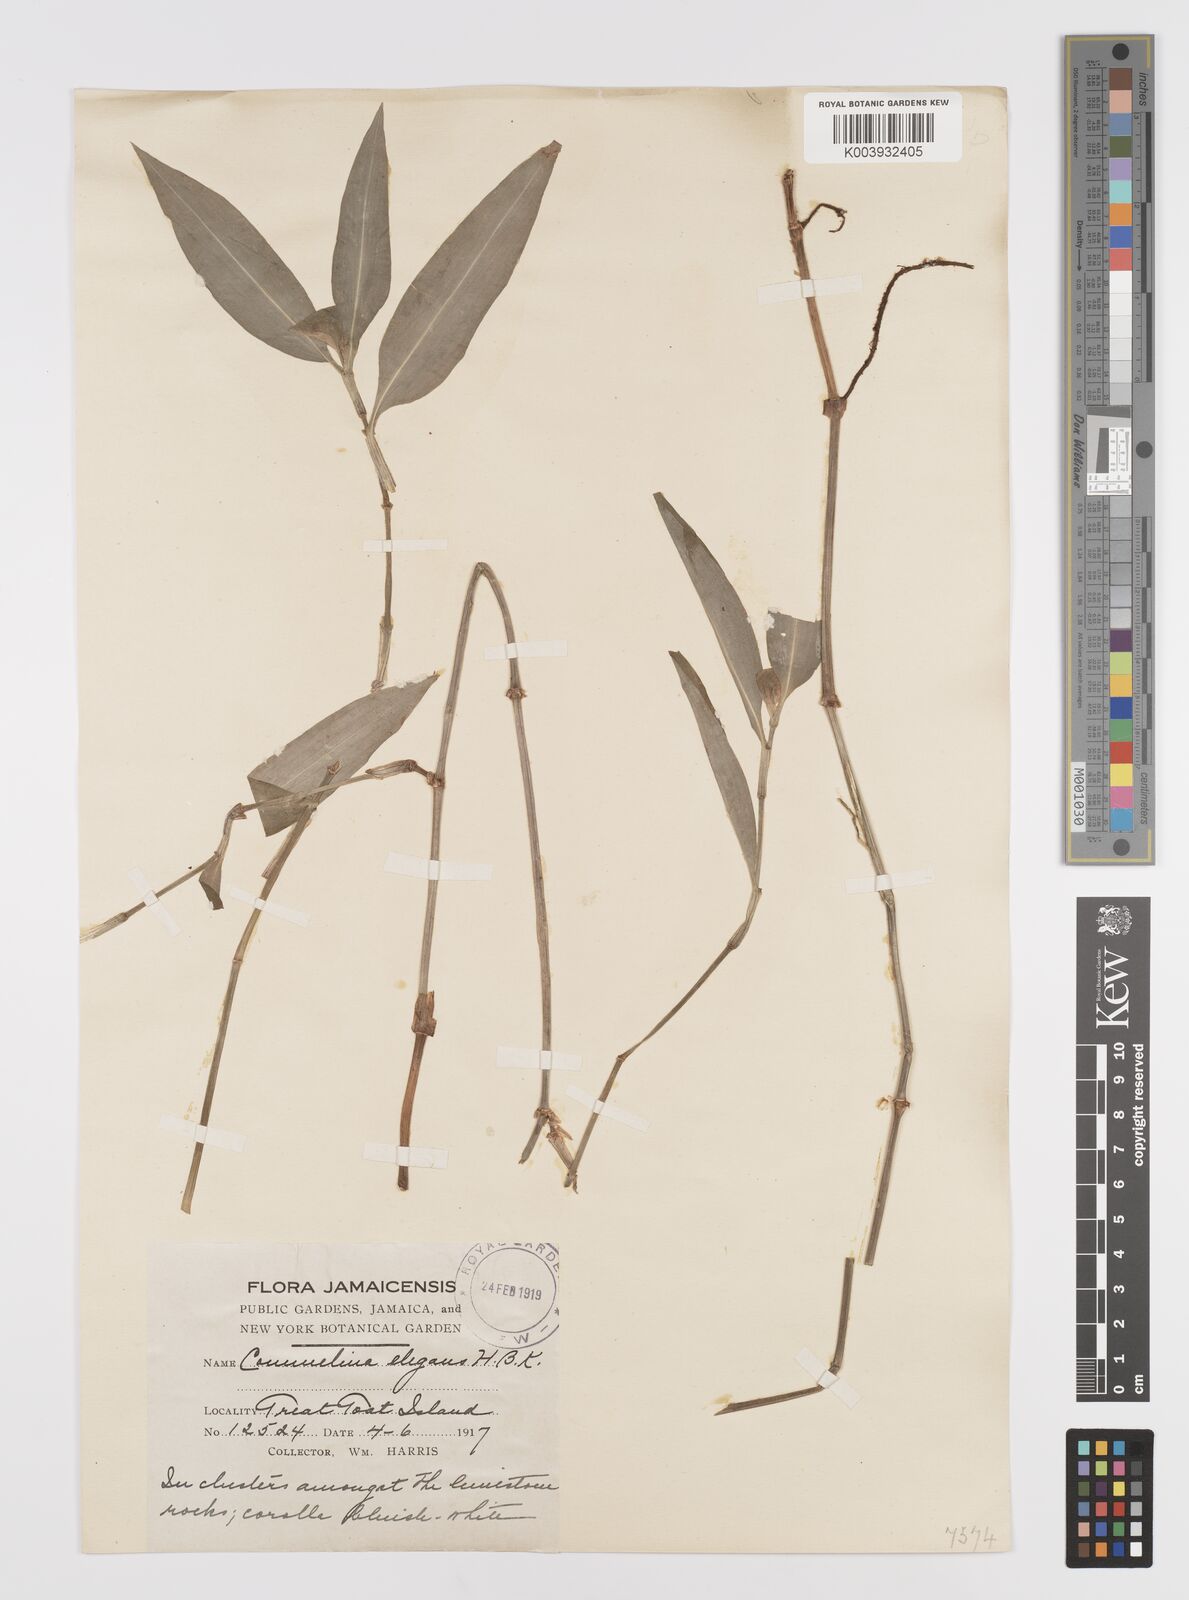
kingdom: Plantae
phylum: Tracheophyta
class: Liliopsida
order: Commelinales
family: Commelinaceae
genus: Commelina
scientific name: Commelina erecta
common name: Blousel blommetjie
